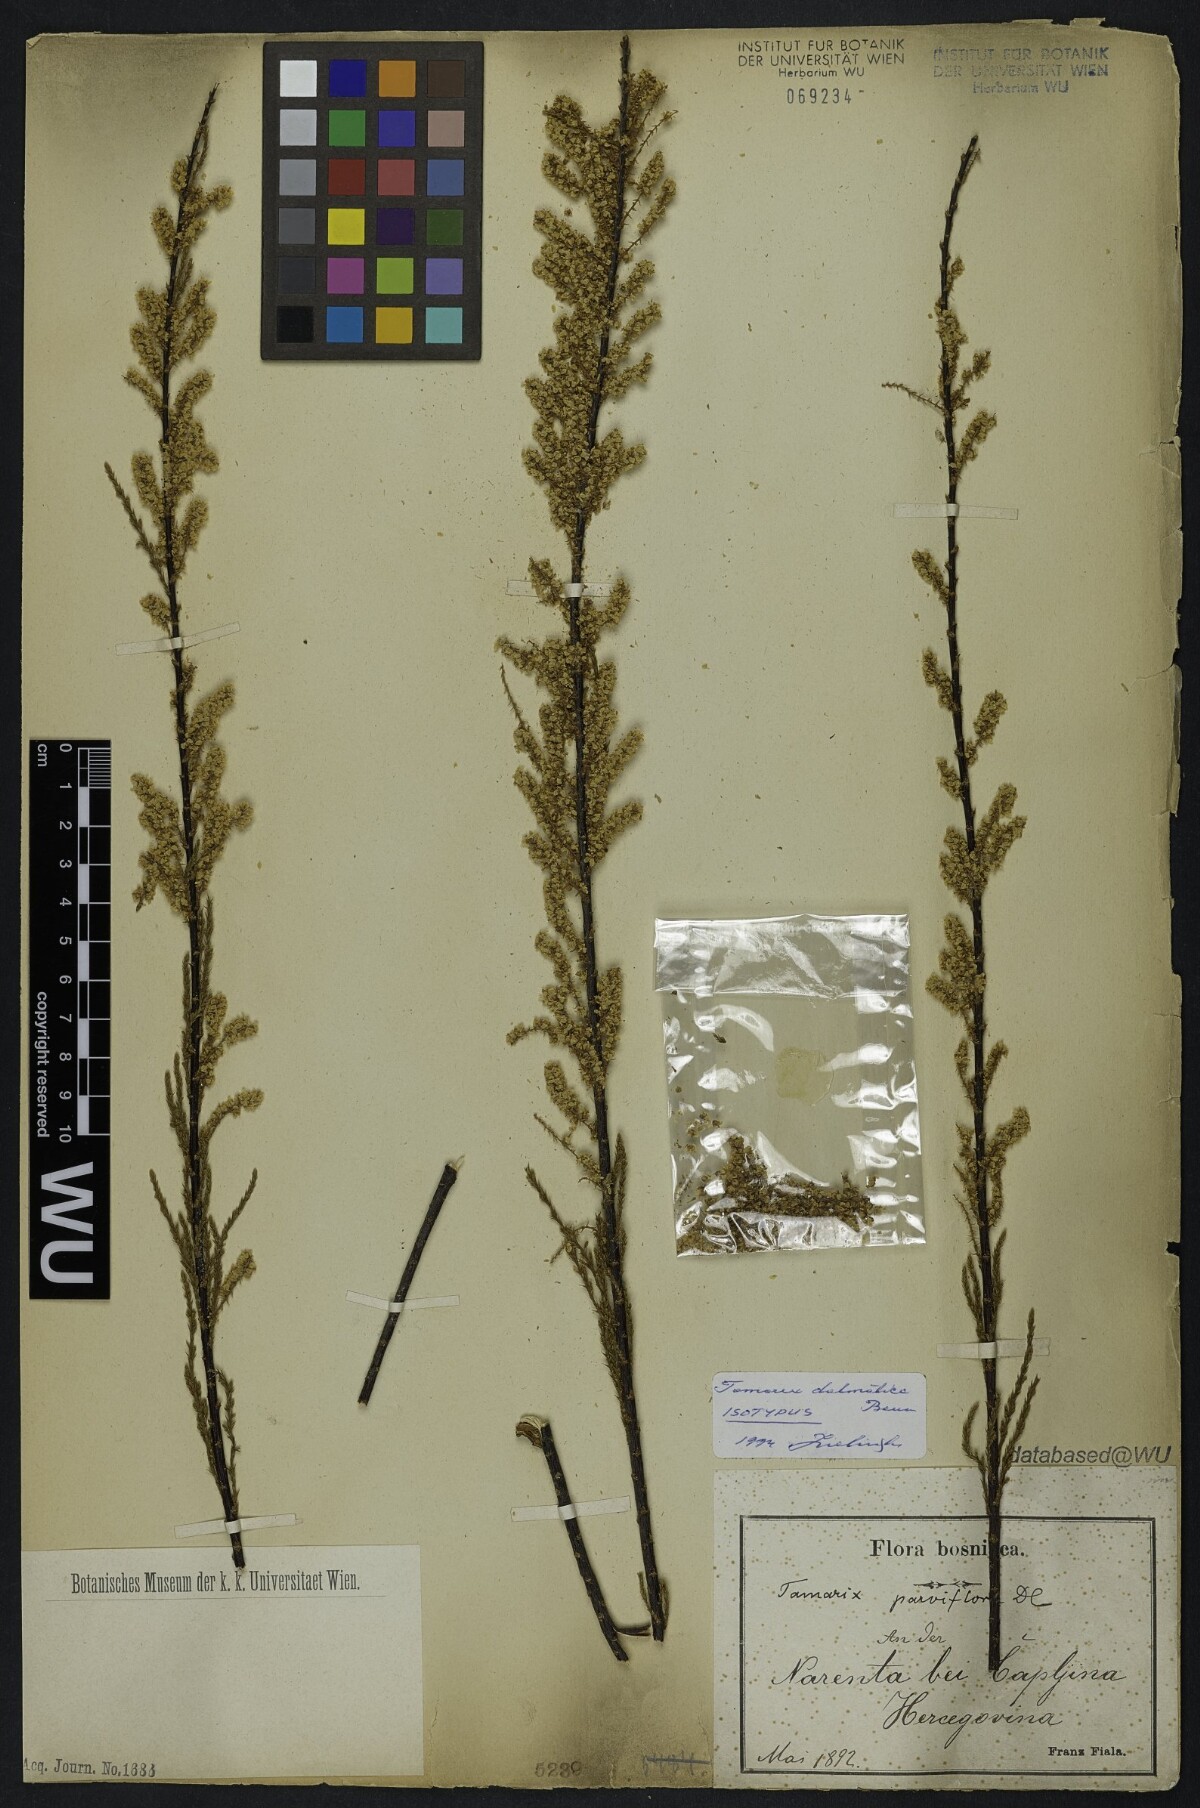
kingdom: Plantae
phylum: Tracheophyta
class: Magnoliopsida
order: Caryophyllales
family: Tamaricaceae
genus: Tamarix
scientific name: Tamarix dalmatica
